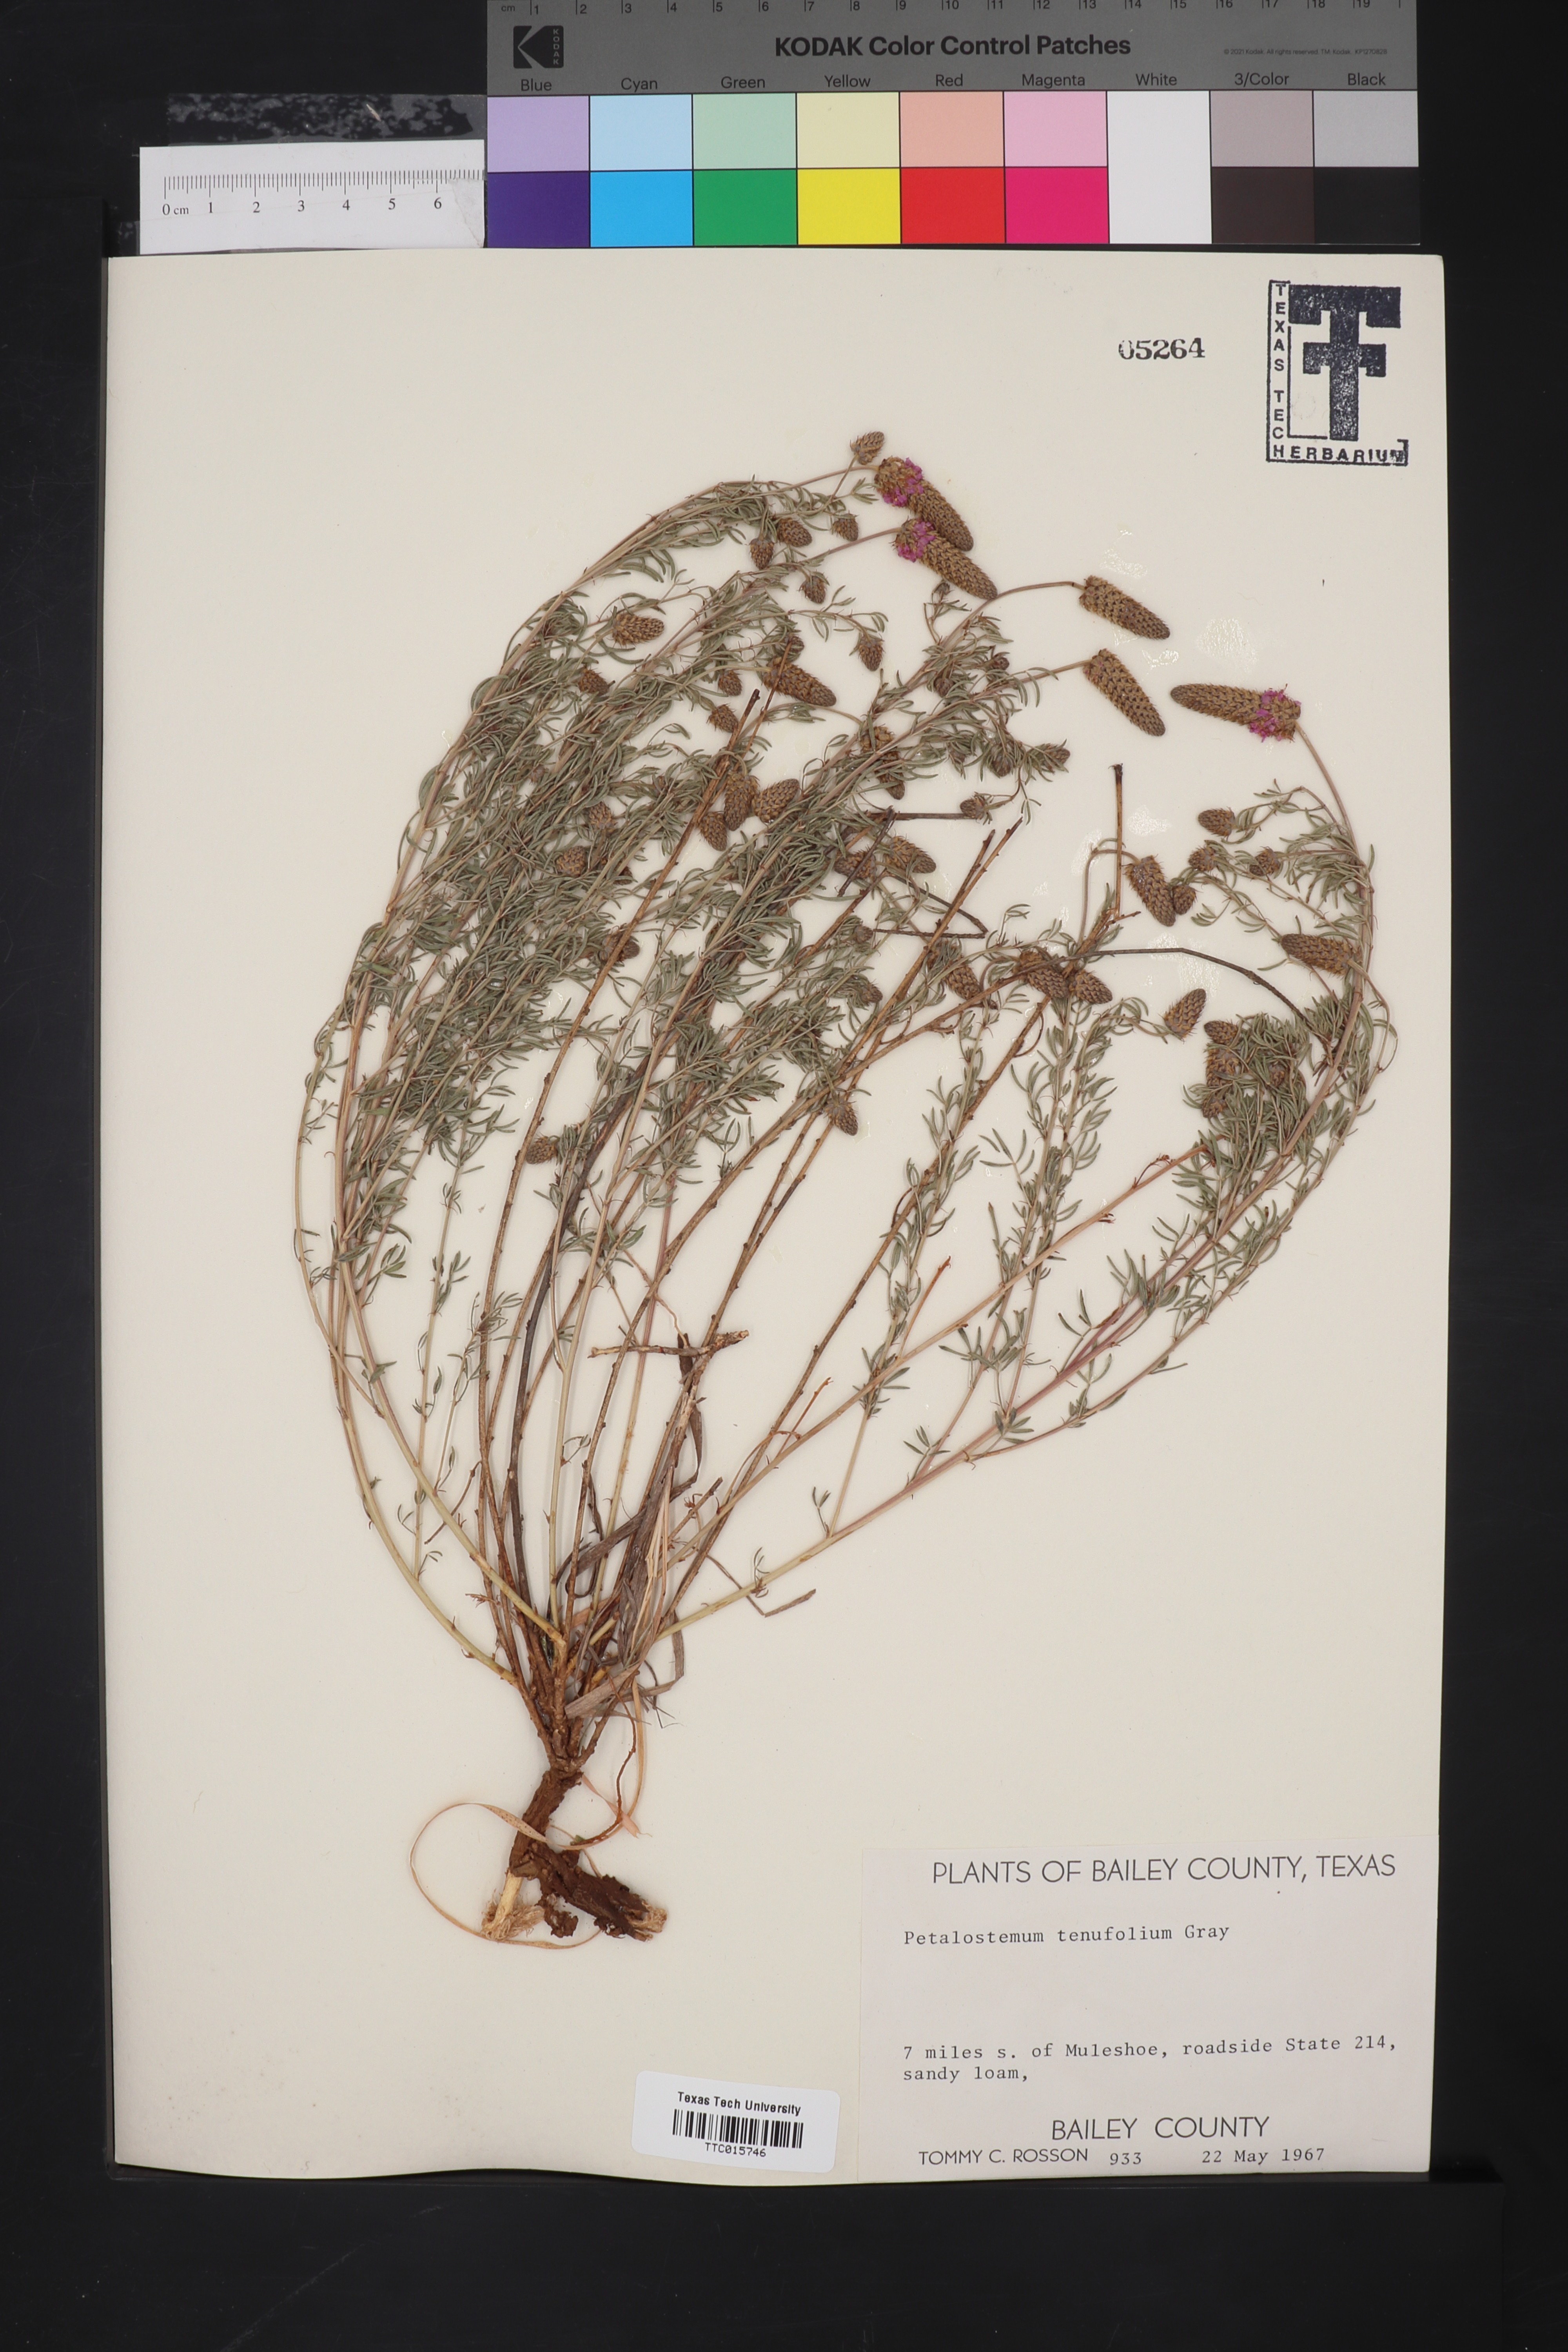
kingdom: Plantae
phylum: Tracheophyta
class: Magnoliopsida
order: Fabales
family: Fabaceae
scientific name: Fabaceae
